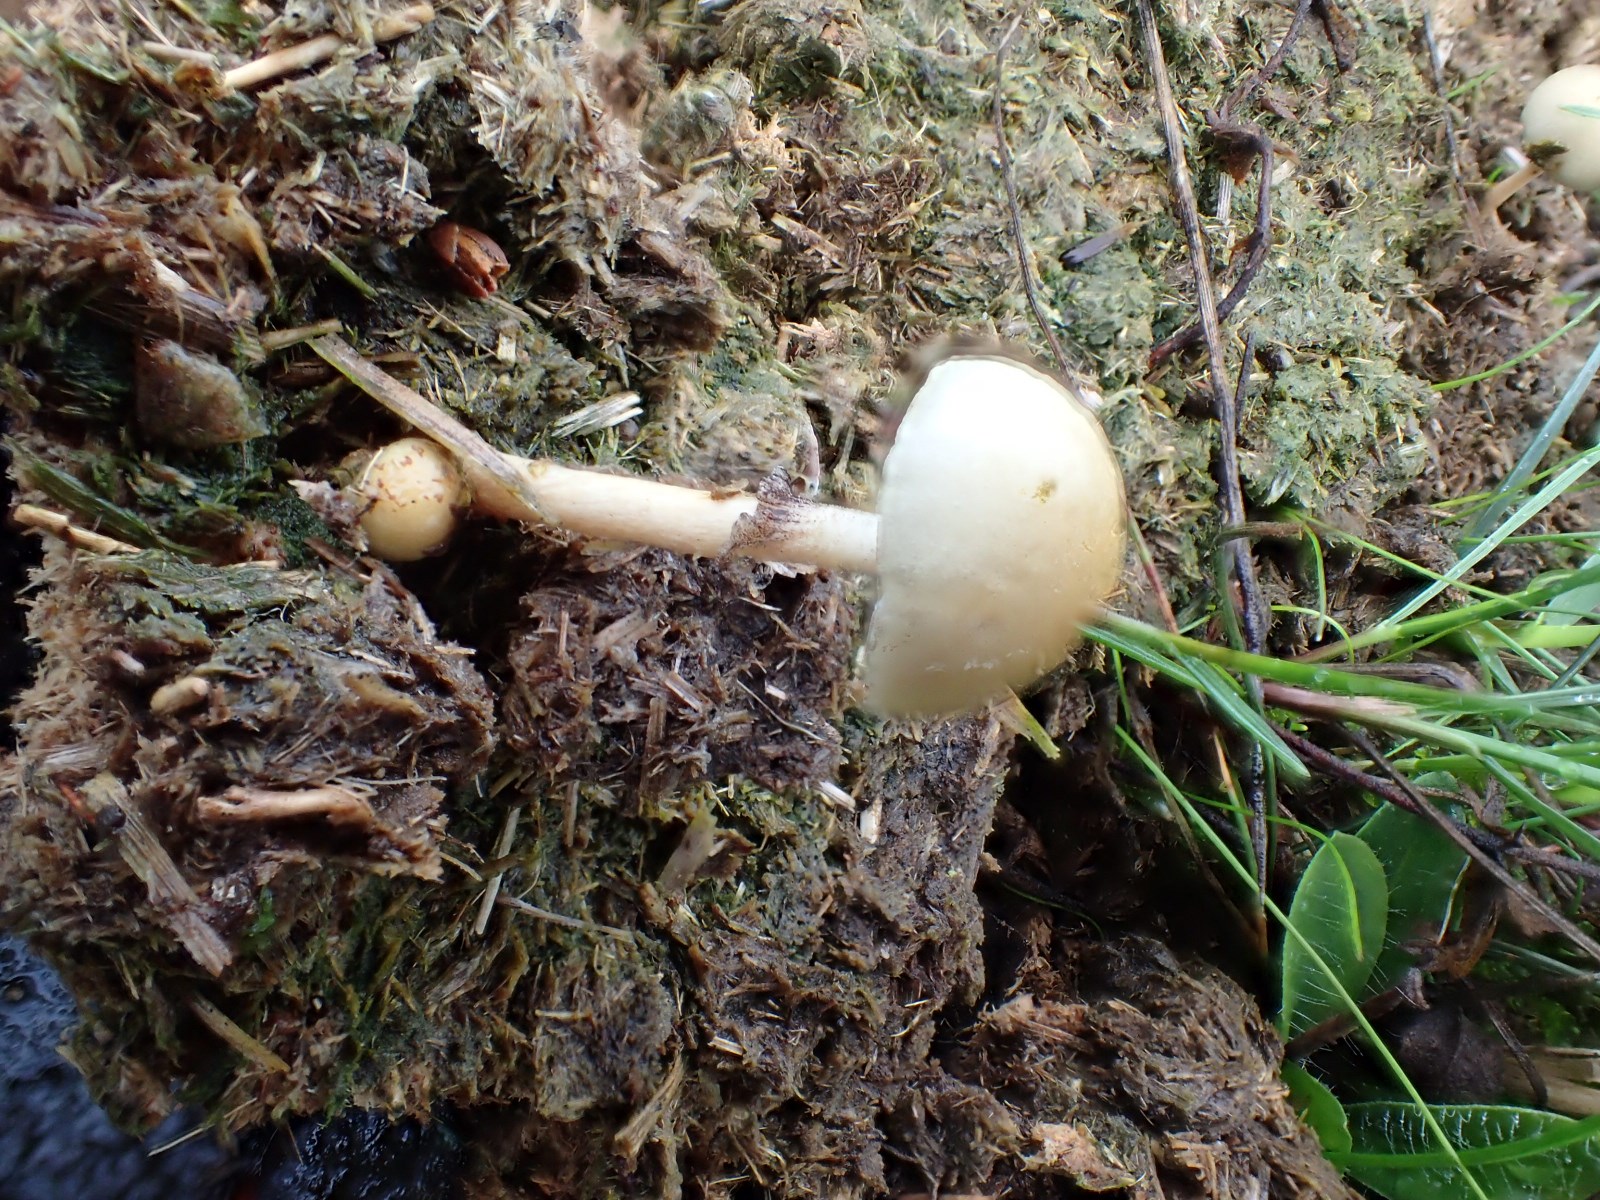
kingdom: Fungi
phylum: Basidiomycota
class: Agaricomycetes
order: Agaricales
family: Bolbitiaceae
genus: Panaeolus
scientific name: Panaeolus semiovatus
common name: ring-glanshat
